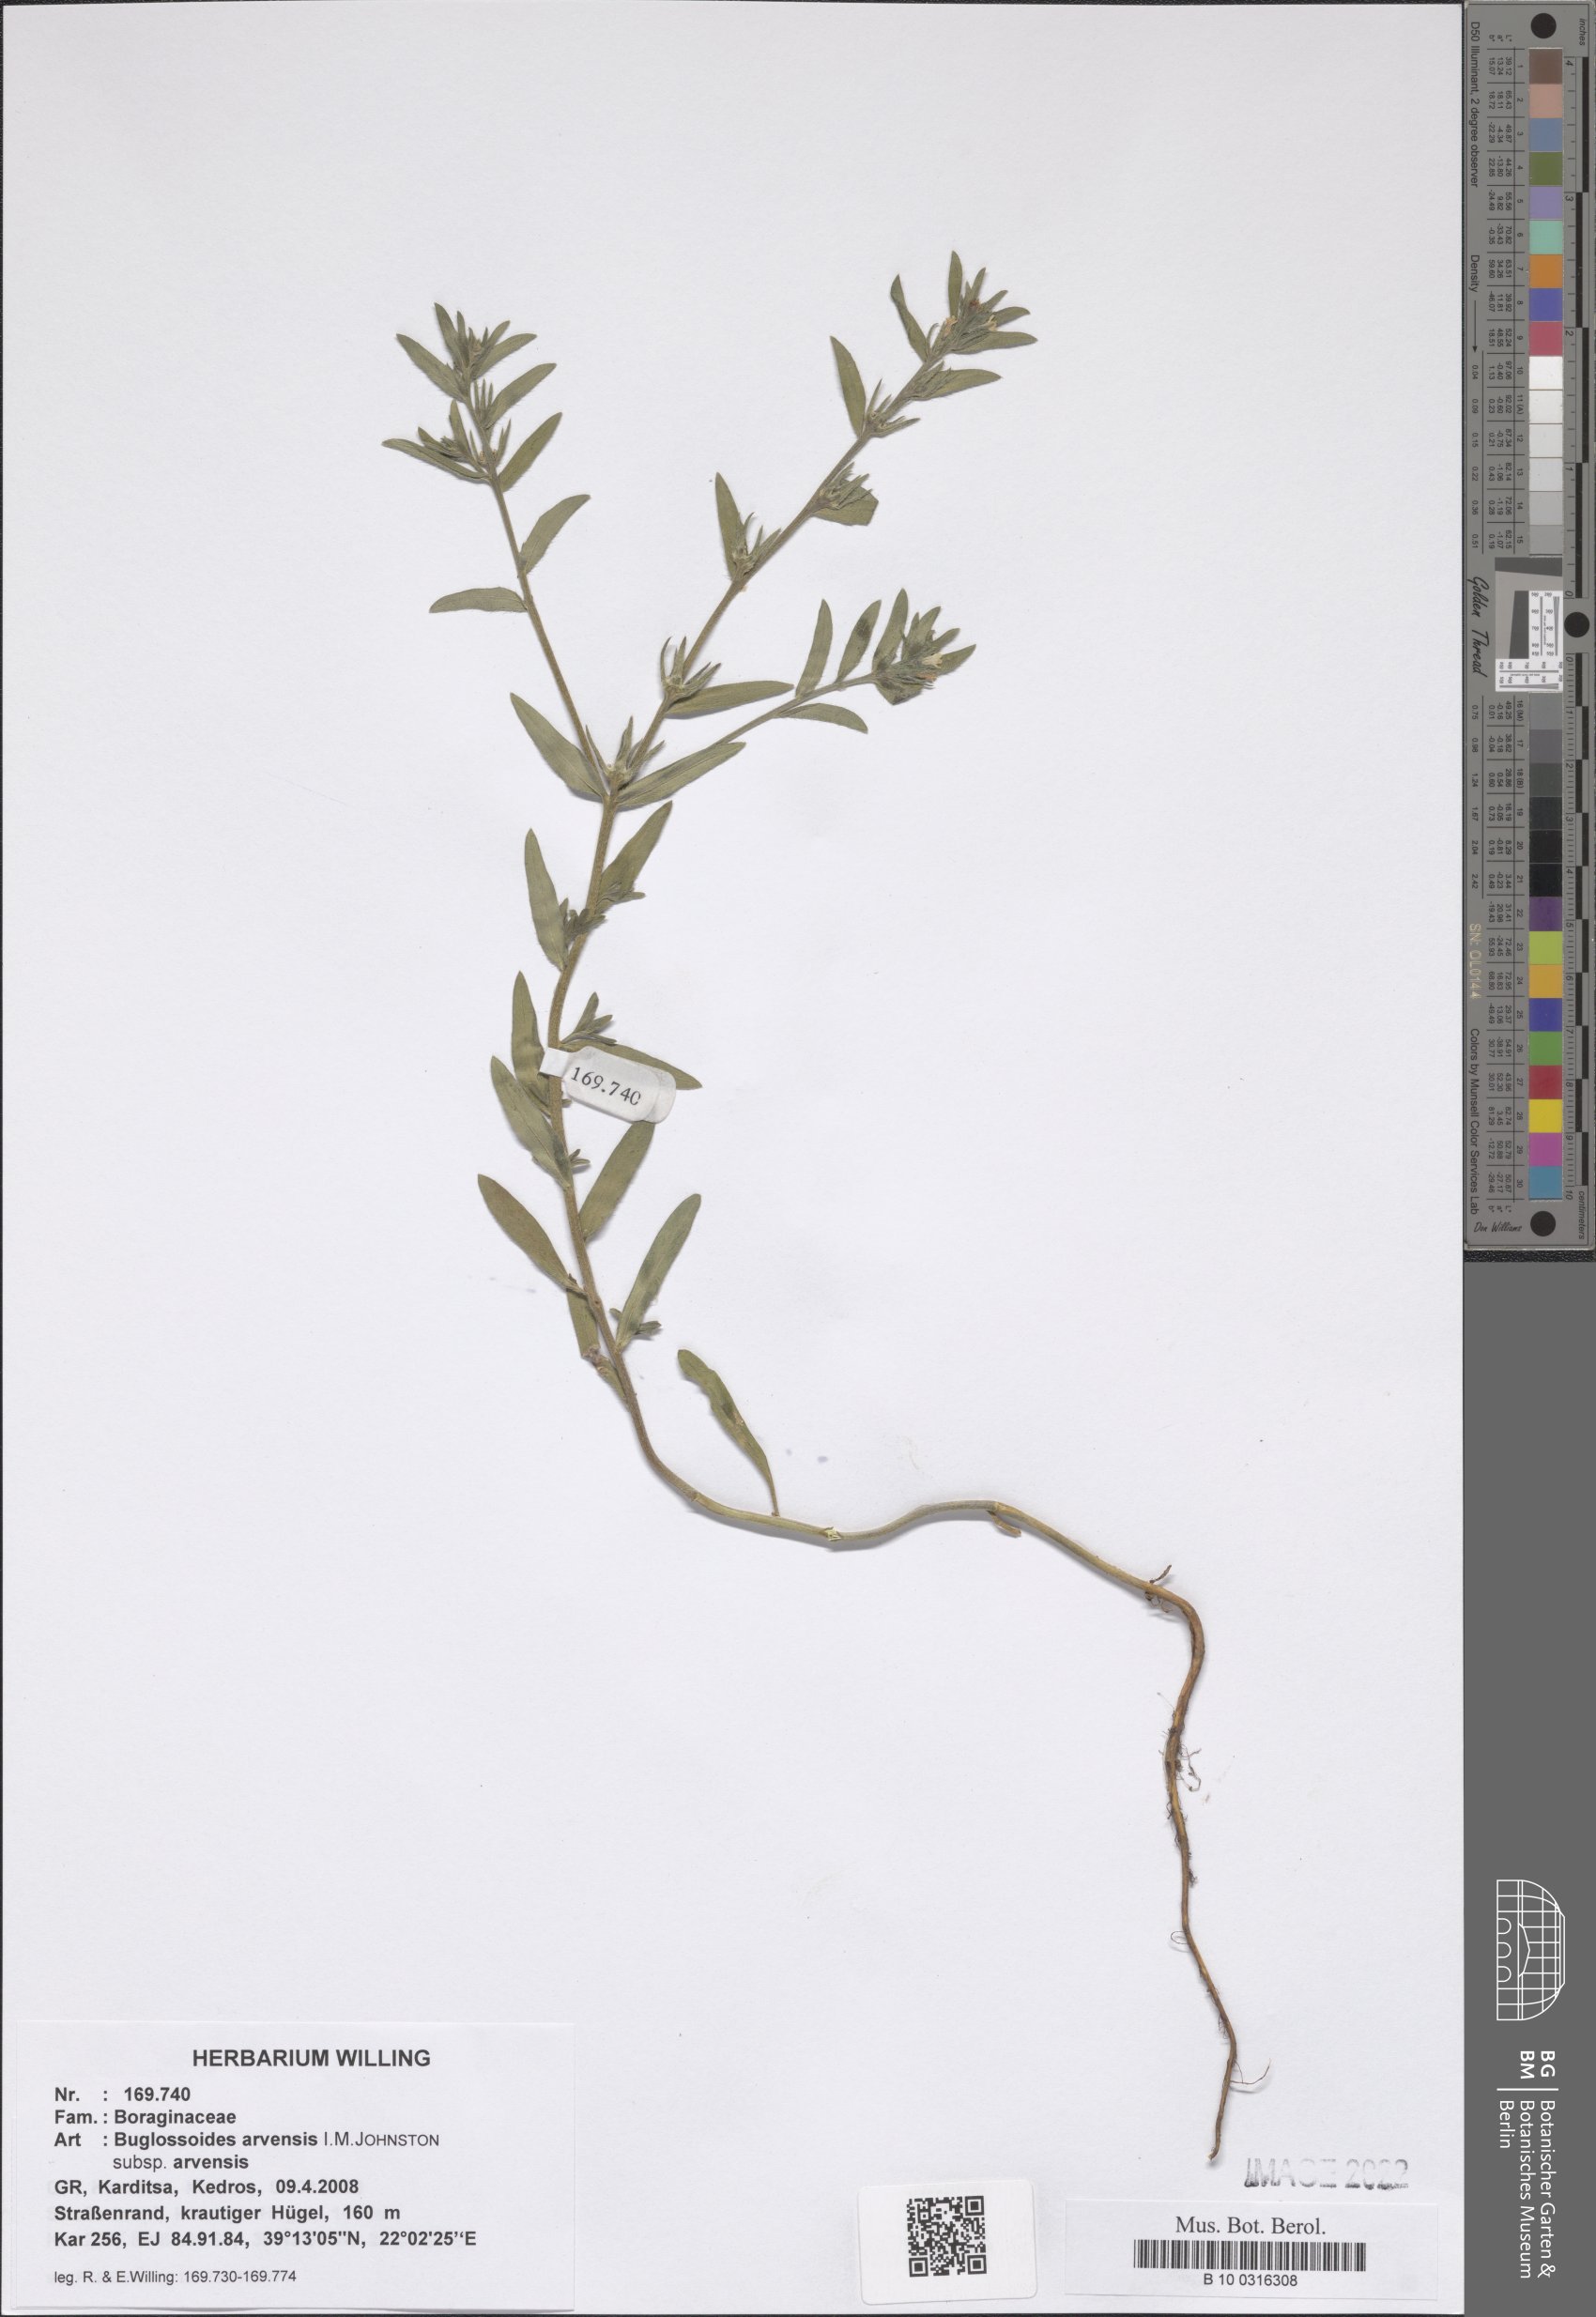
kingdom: Plantae
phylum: Tracheophyta
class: Magnoliopsida
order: Boraginales
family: Boraginaceae
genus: Buglossoides
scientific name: Buglossoides arvensis
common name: Corn gromwell
